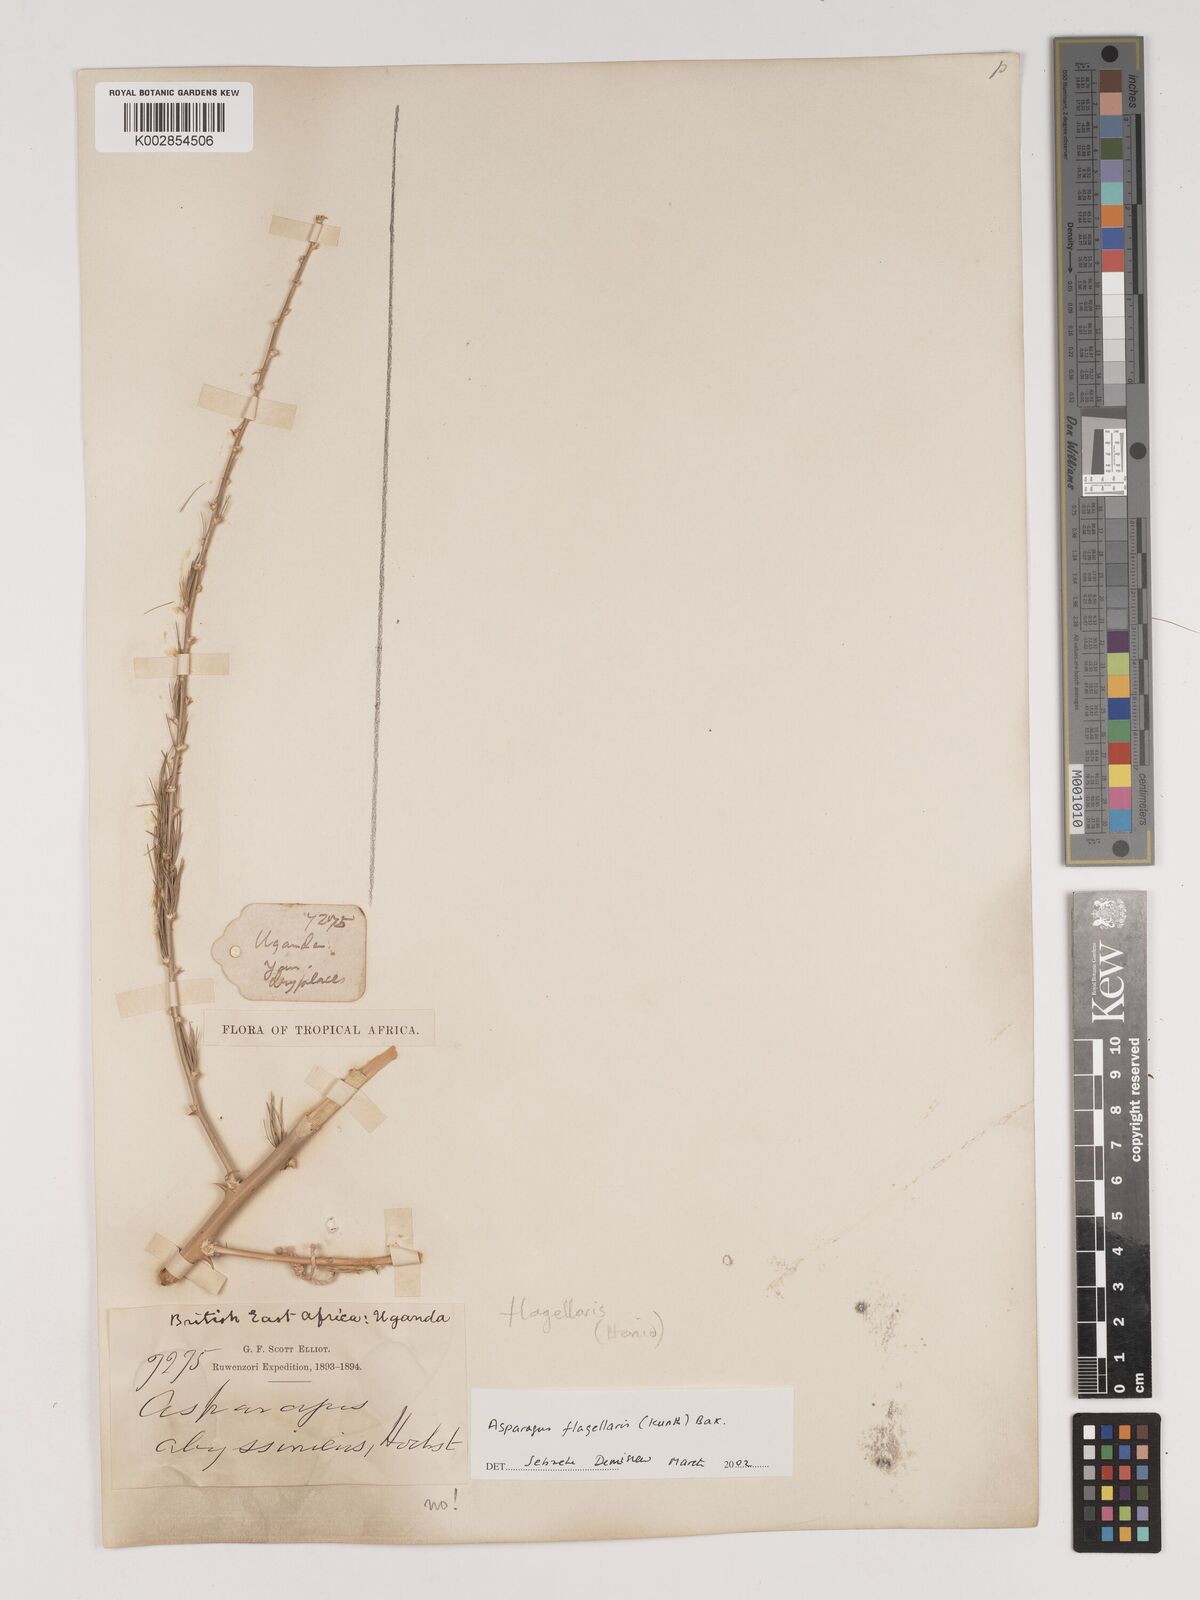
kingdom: Plantae
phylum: Tracheophyta
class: Liliopsida
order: Asparagales
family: Asparagaceae
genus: Asparagus
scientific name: Asparagus flagellaris
